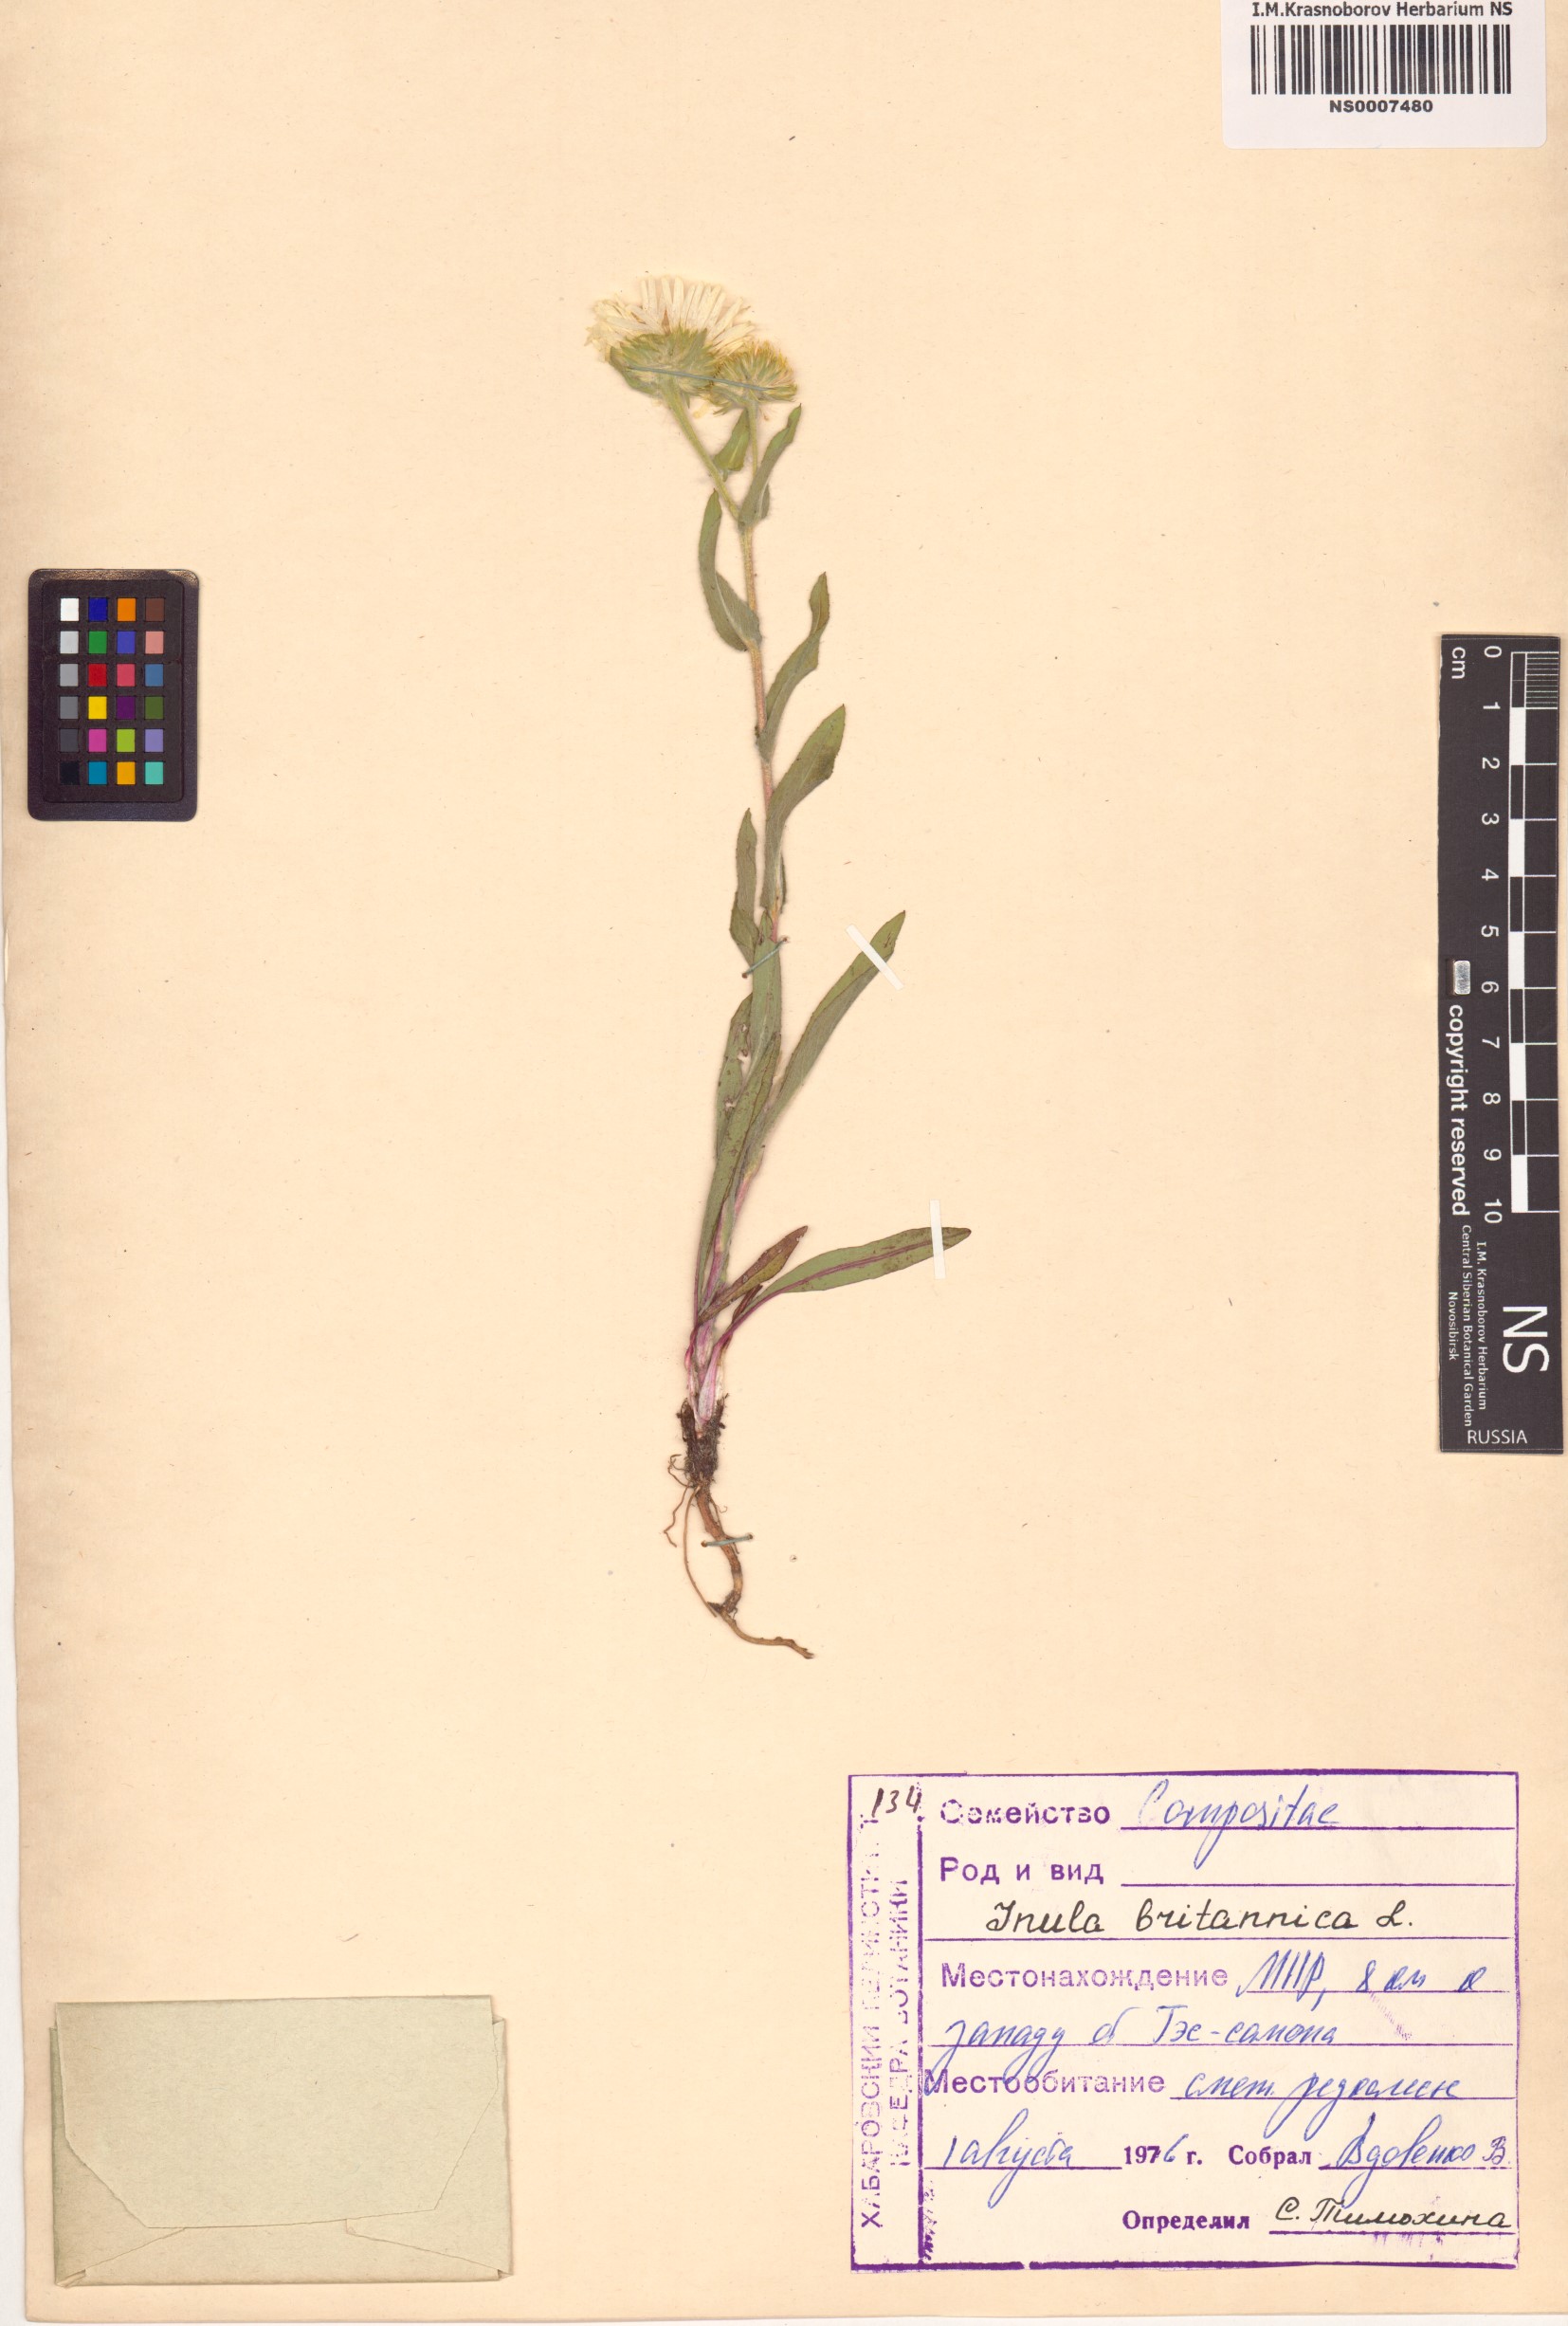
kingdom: Plantae
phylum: Tracheophyta
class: Magnoliopsida
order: Asterales
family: Asteraceae
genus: Pentanema
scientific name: Pentanema britannicum
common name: British elecampane
